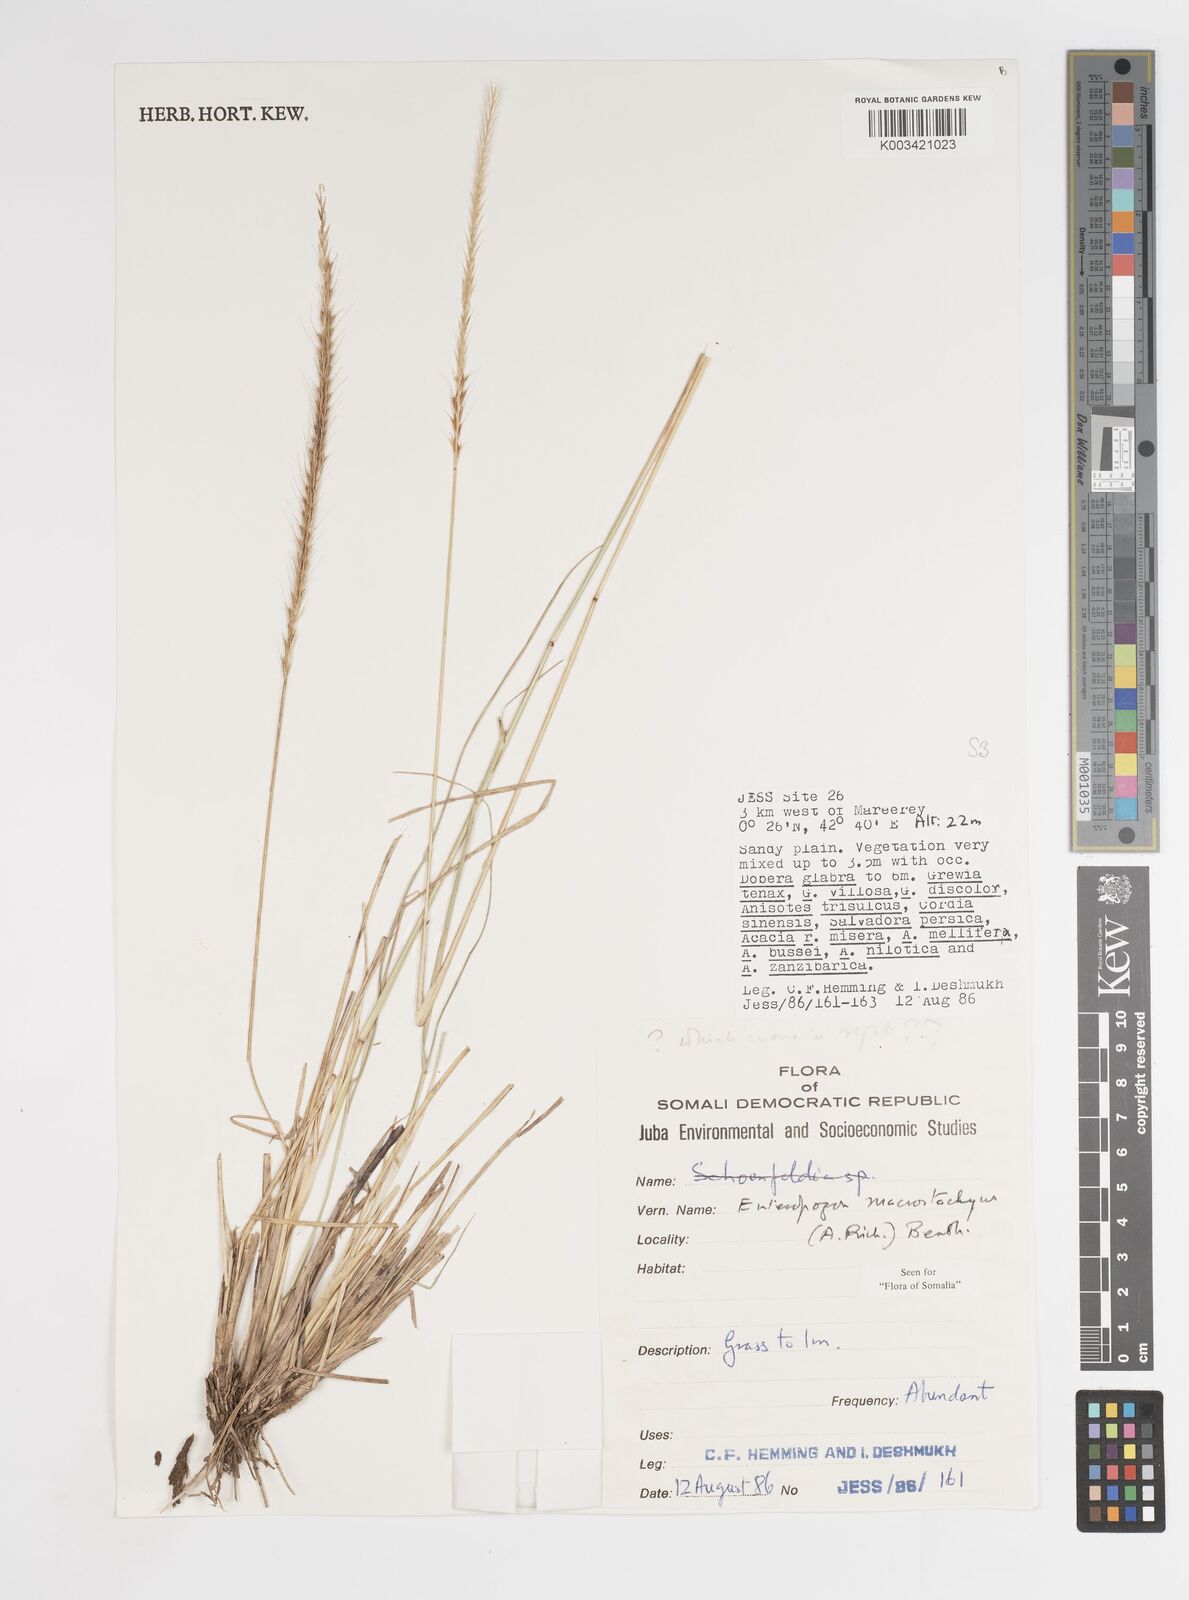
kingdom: Plantae
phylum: Tracheophyta
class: Liliopsida
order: Poales
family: Poaceae
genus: Enteropogon
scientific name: Enteropogon macrostachyus
